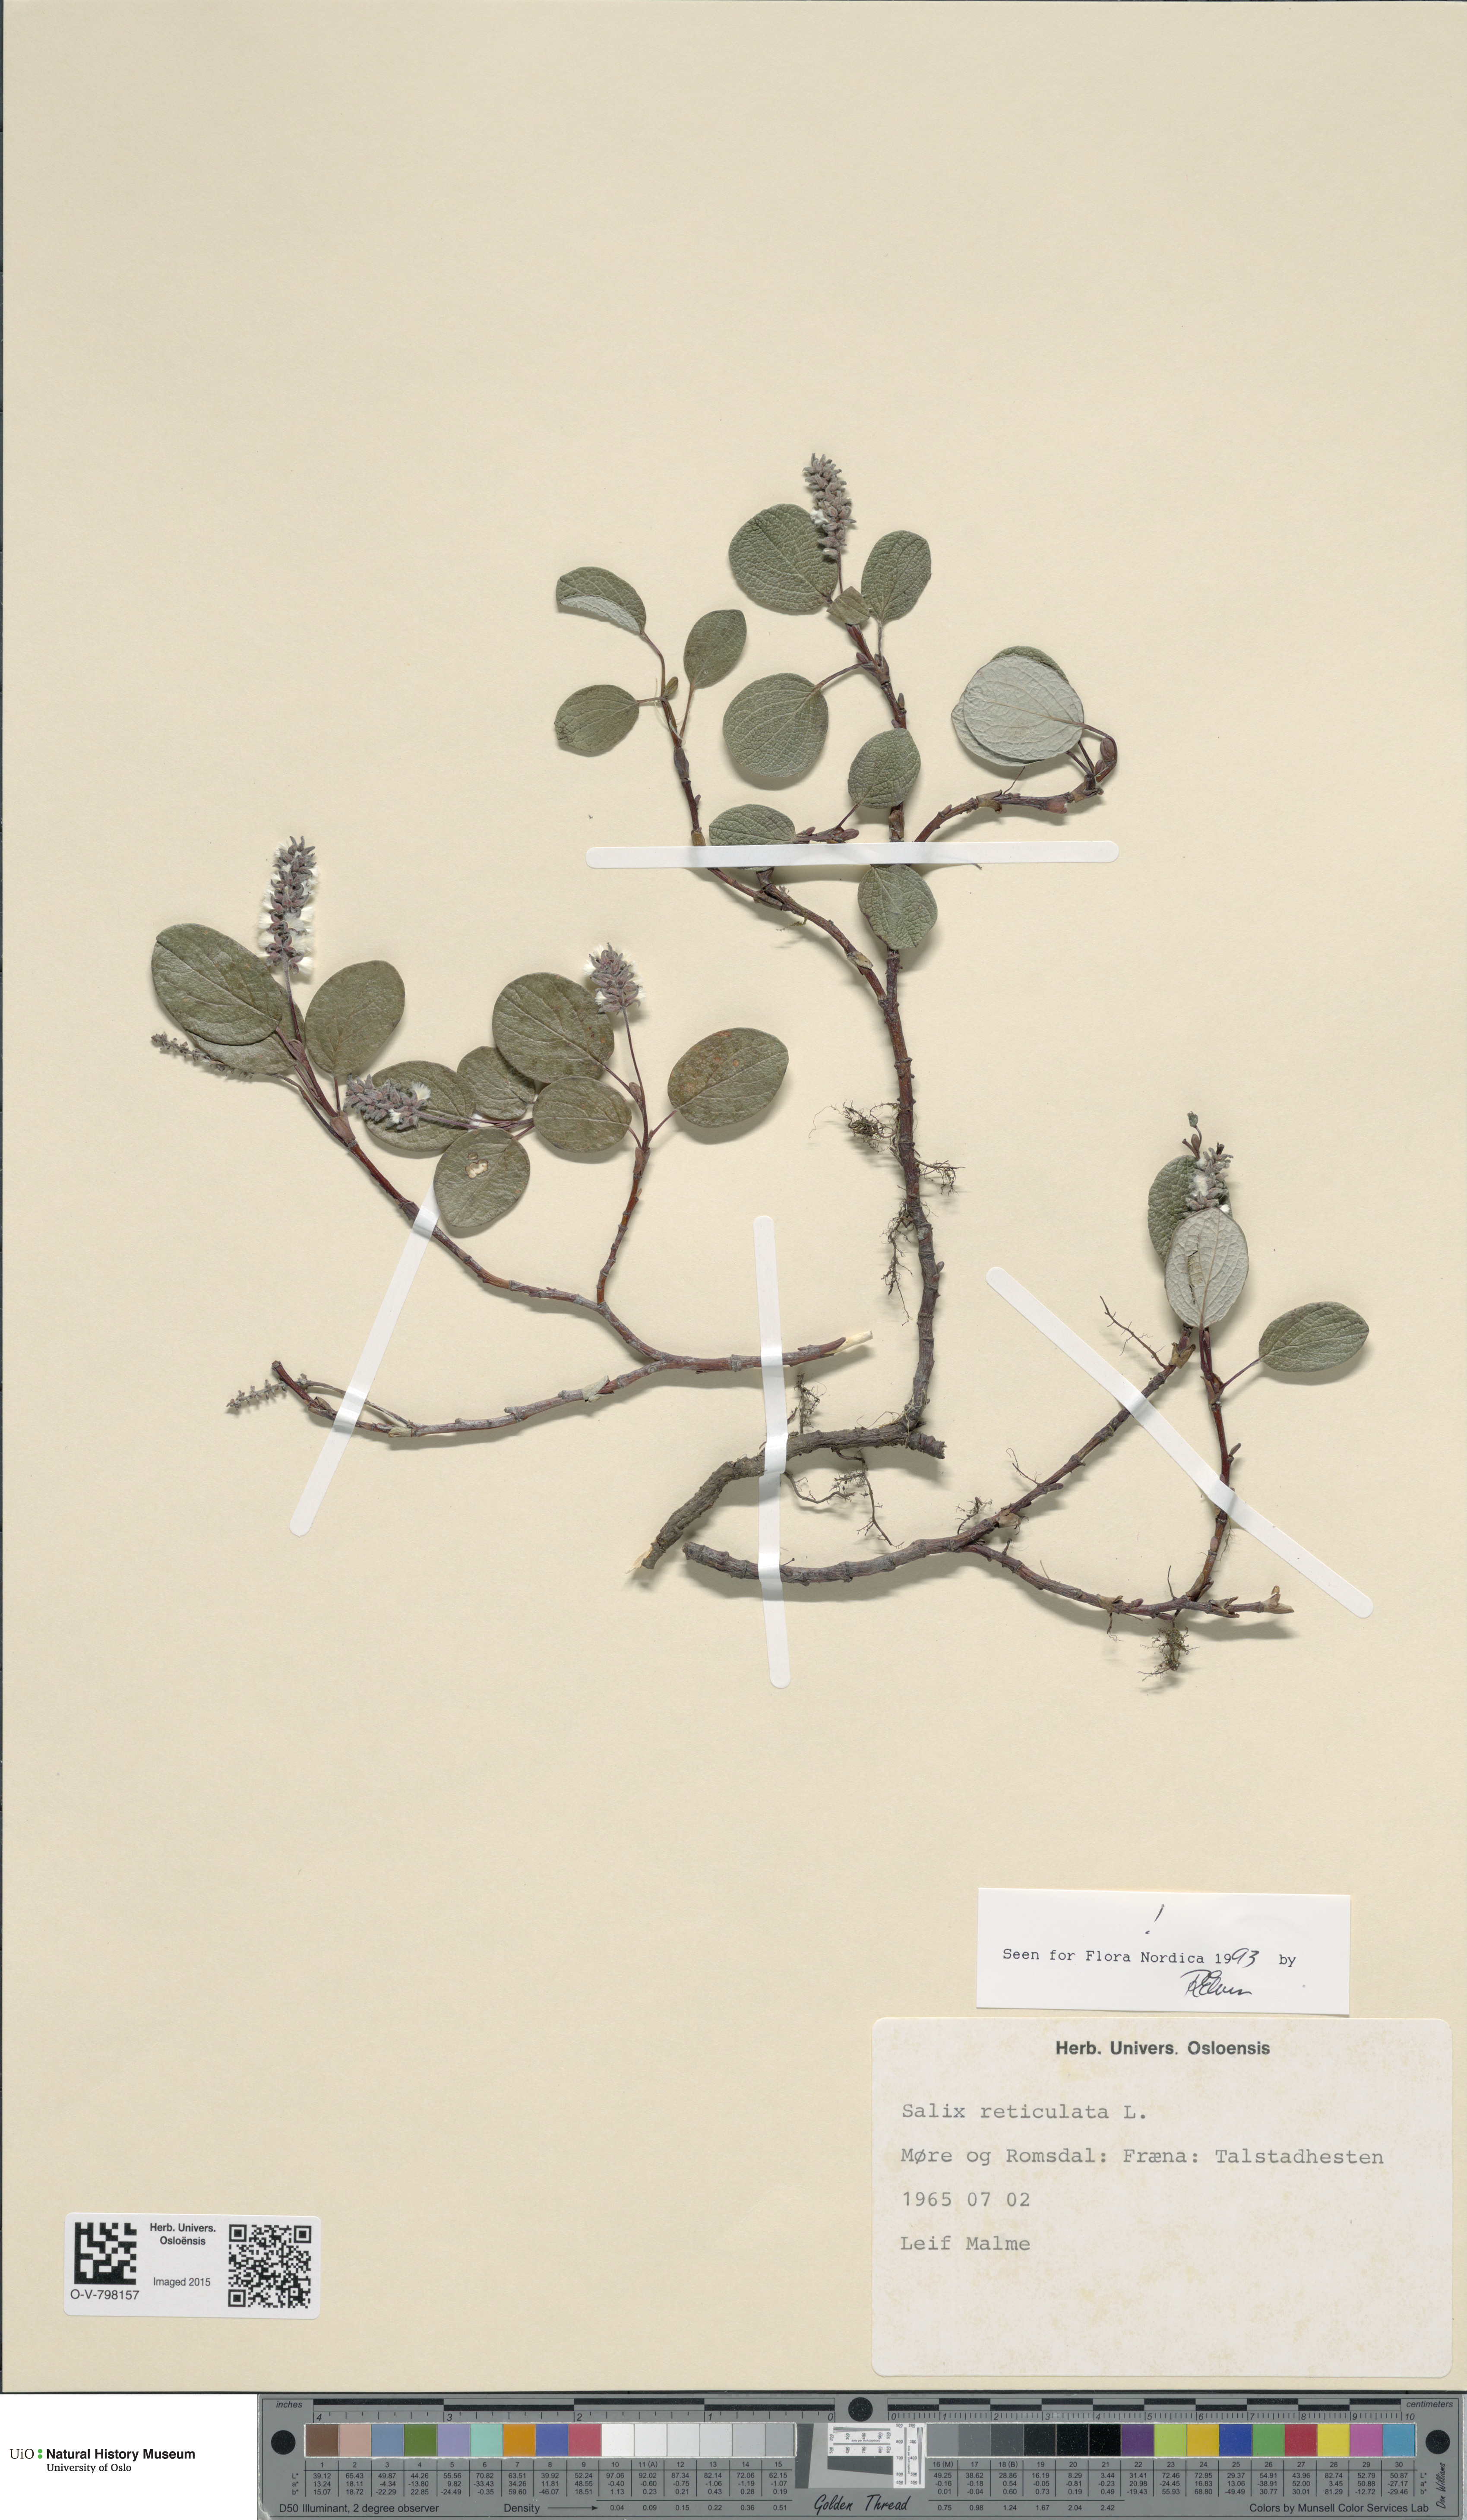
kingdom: Plantae
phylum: Tracheophyta
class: Magnoliopsida
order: Malpighiales
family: Salicaceae
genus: Salix
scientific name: Salix reticulata
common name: Net-leaved willow
